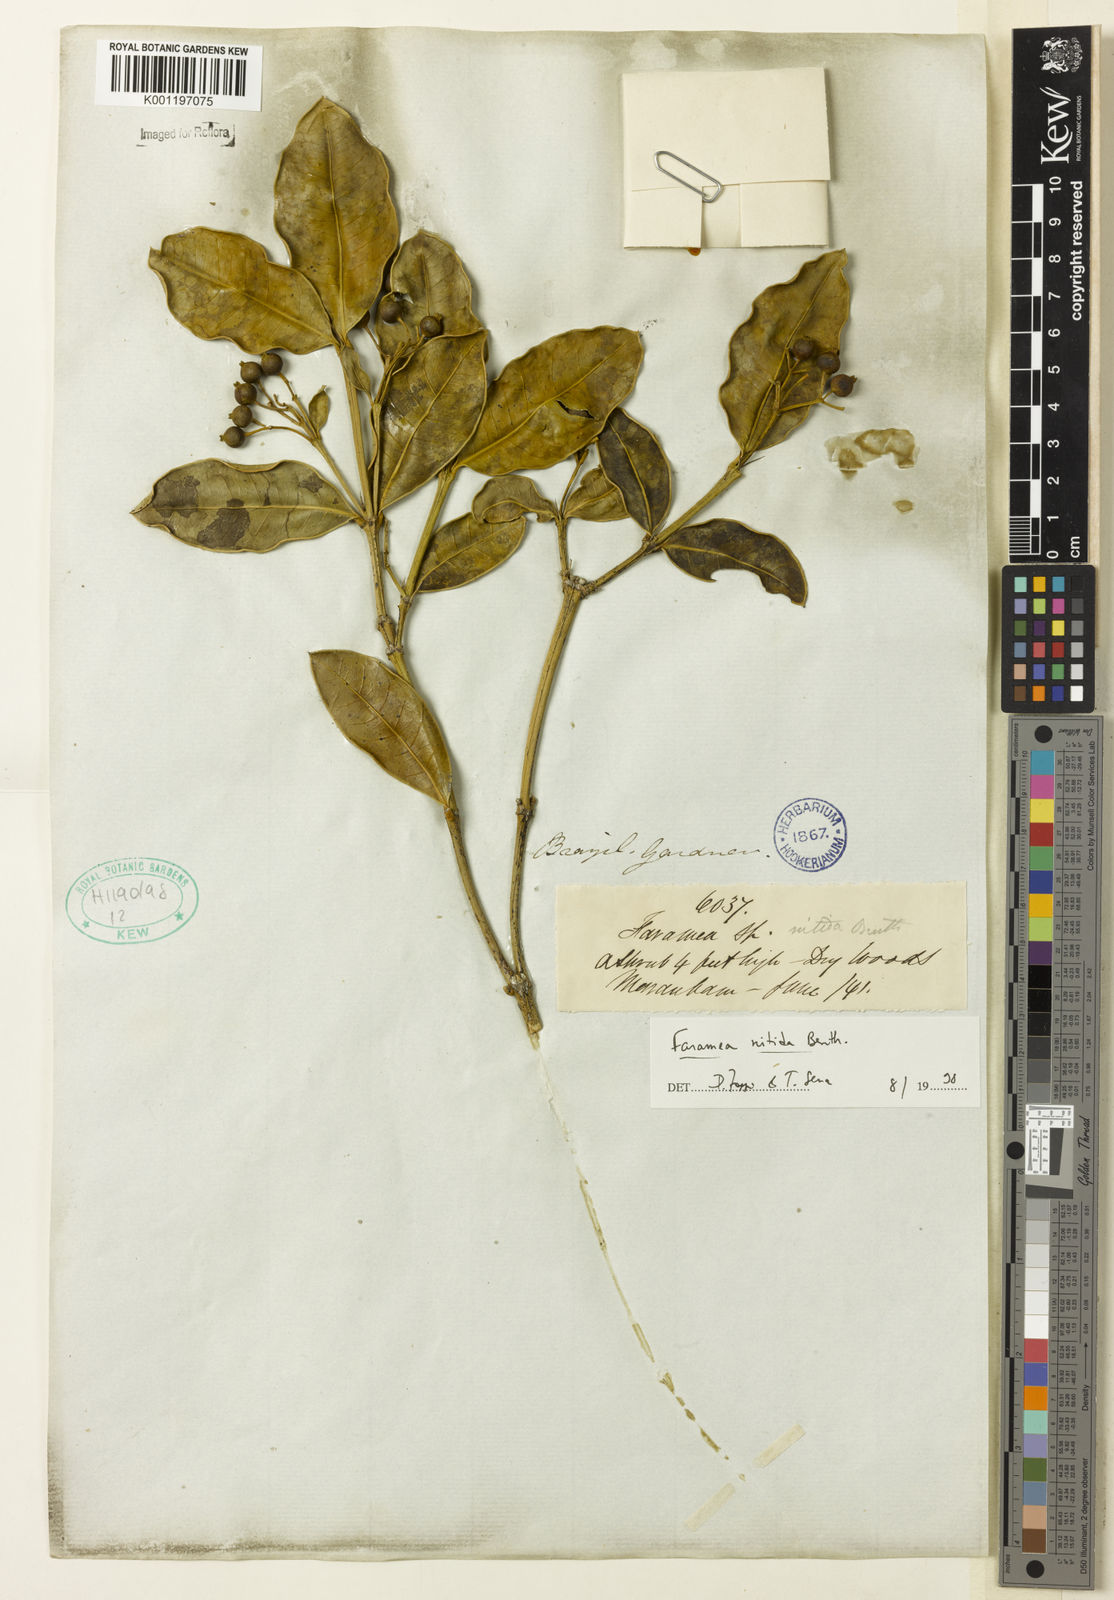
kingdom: Plantae
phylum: Tracheophyta
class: Magnoliopsida
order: Gentianales
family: Rubiaceae
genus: Faramea
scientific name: Faramea nitida
